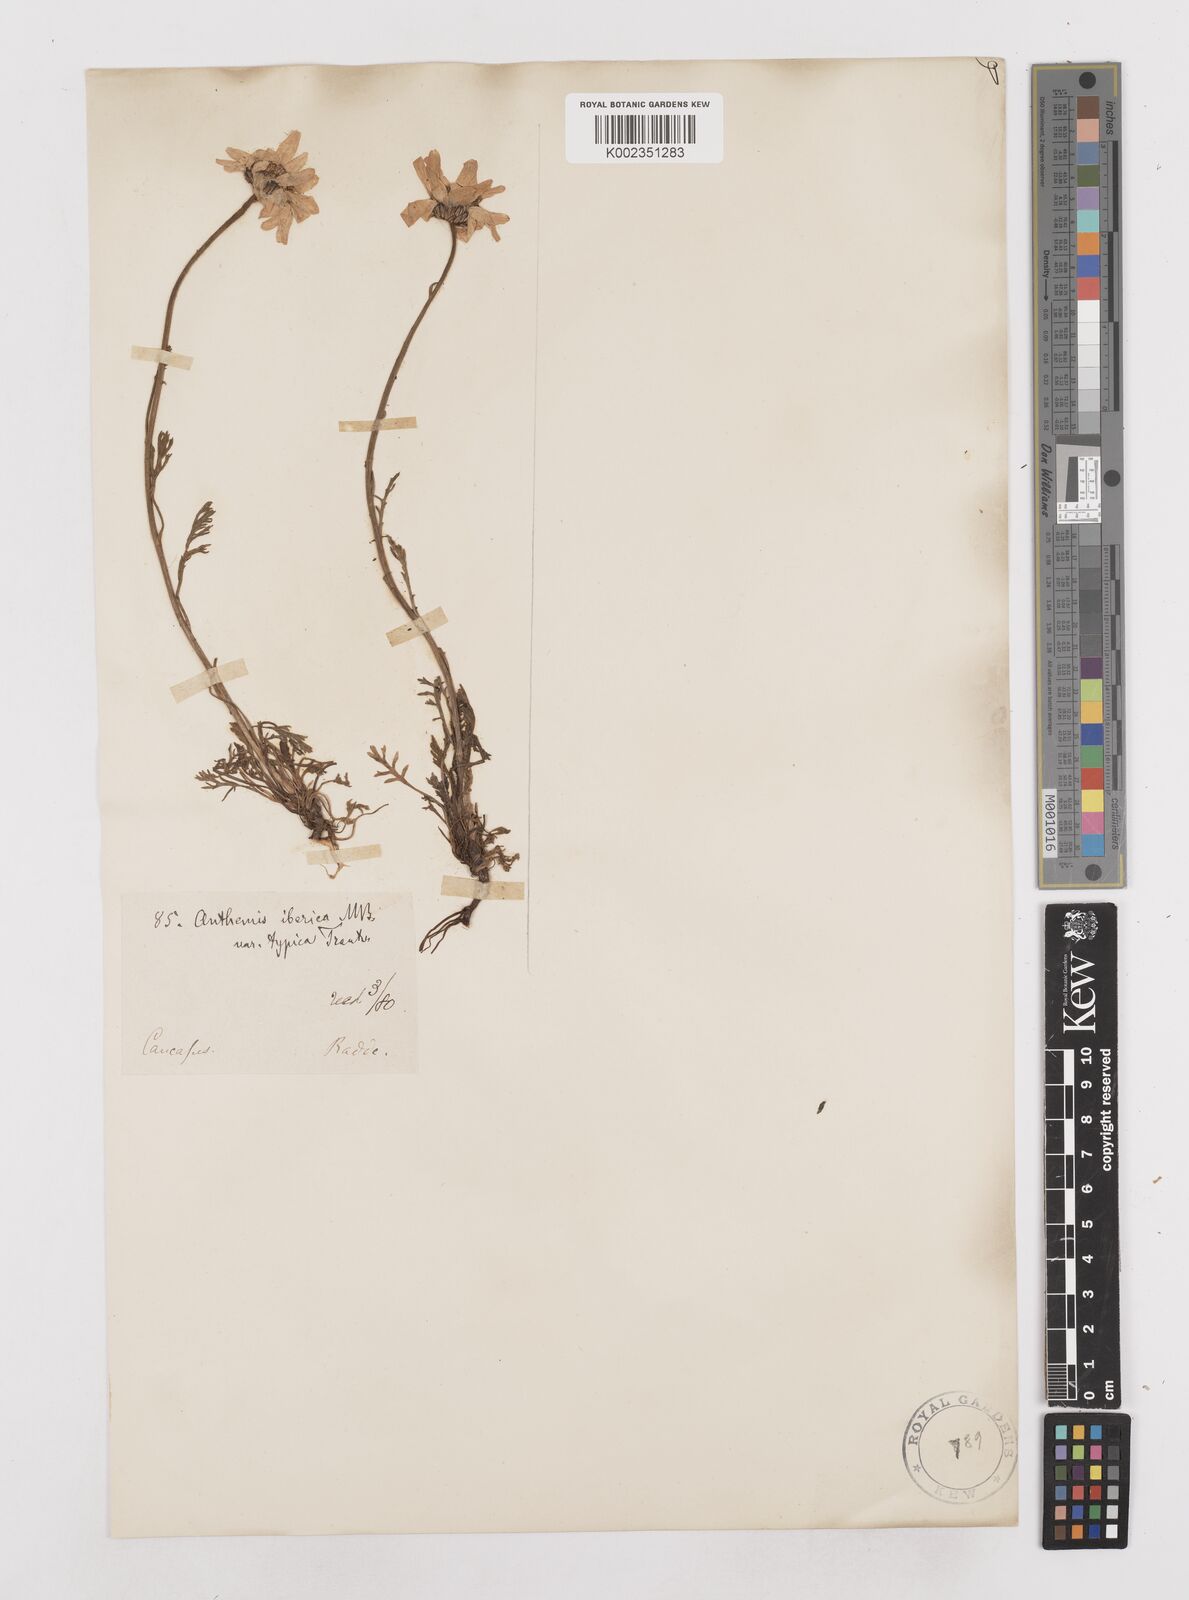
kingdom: Plantae
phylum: Tracheophyta
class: Magnoliopsida
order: Asterales
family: Asteraceae
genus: Anthemis
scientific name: Anthemis cretica
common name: Mountain dog-daisy
